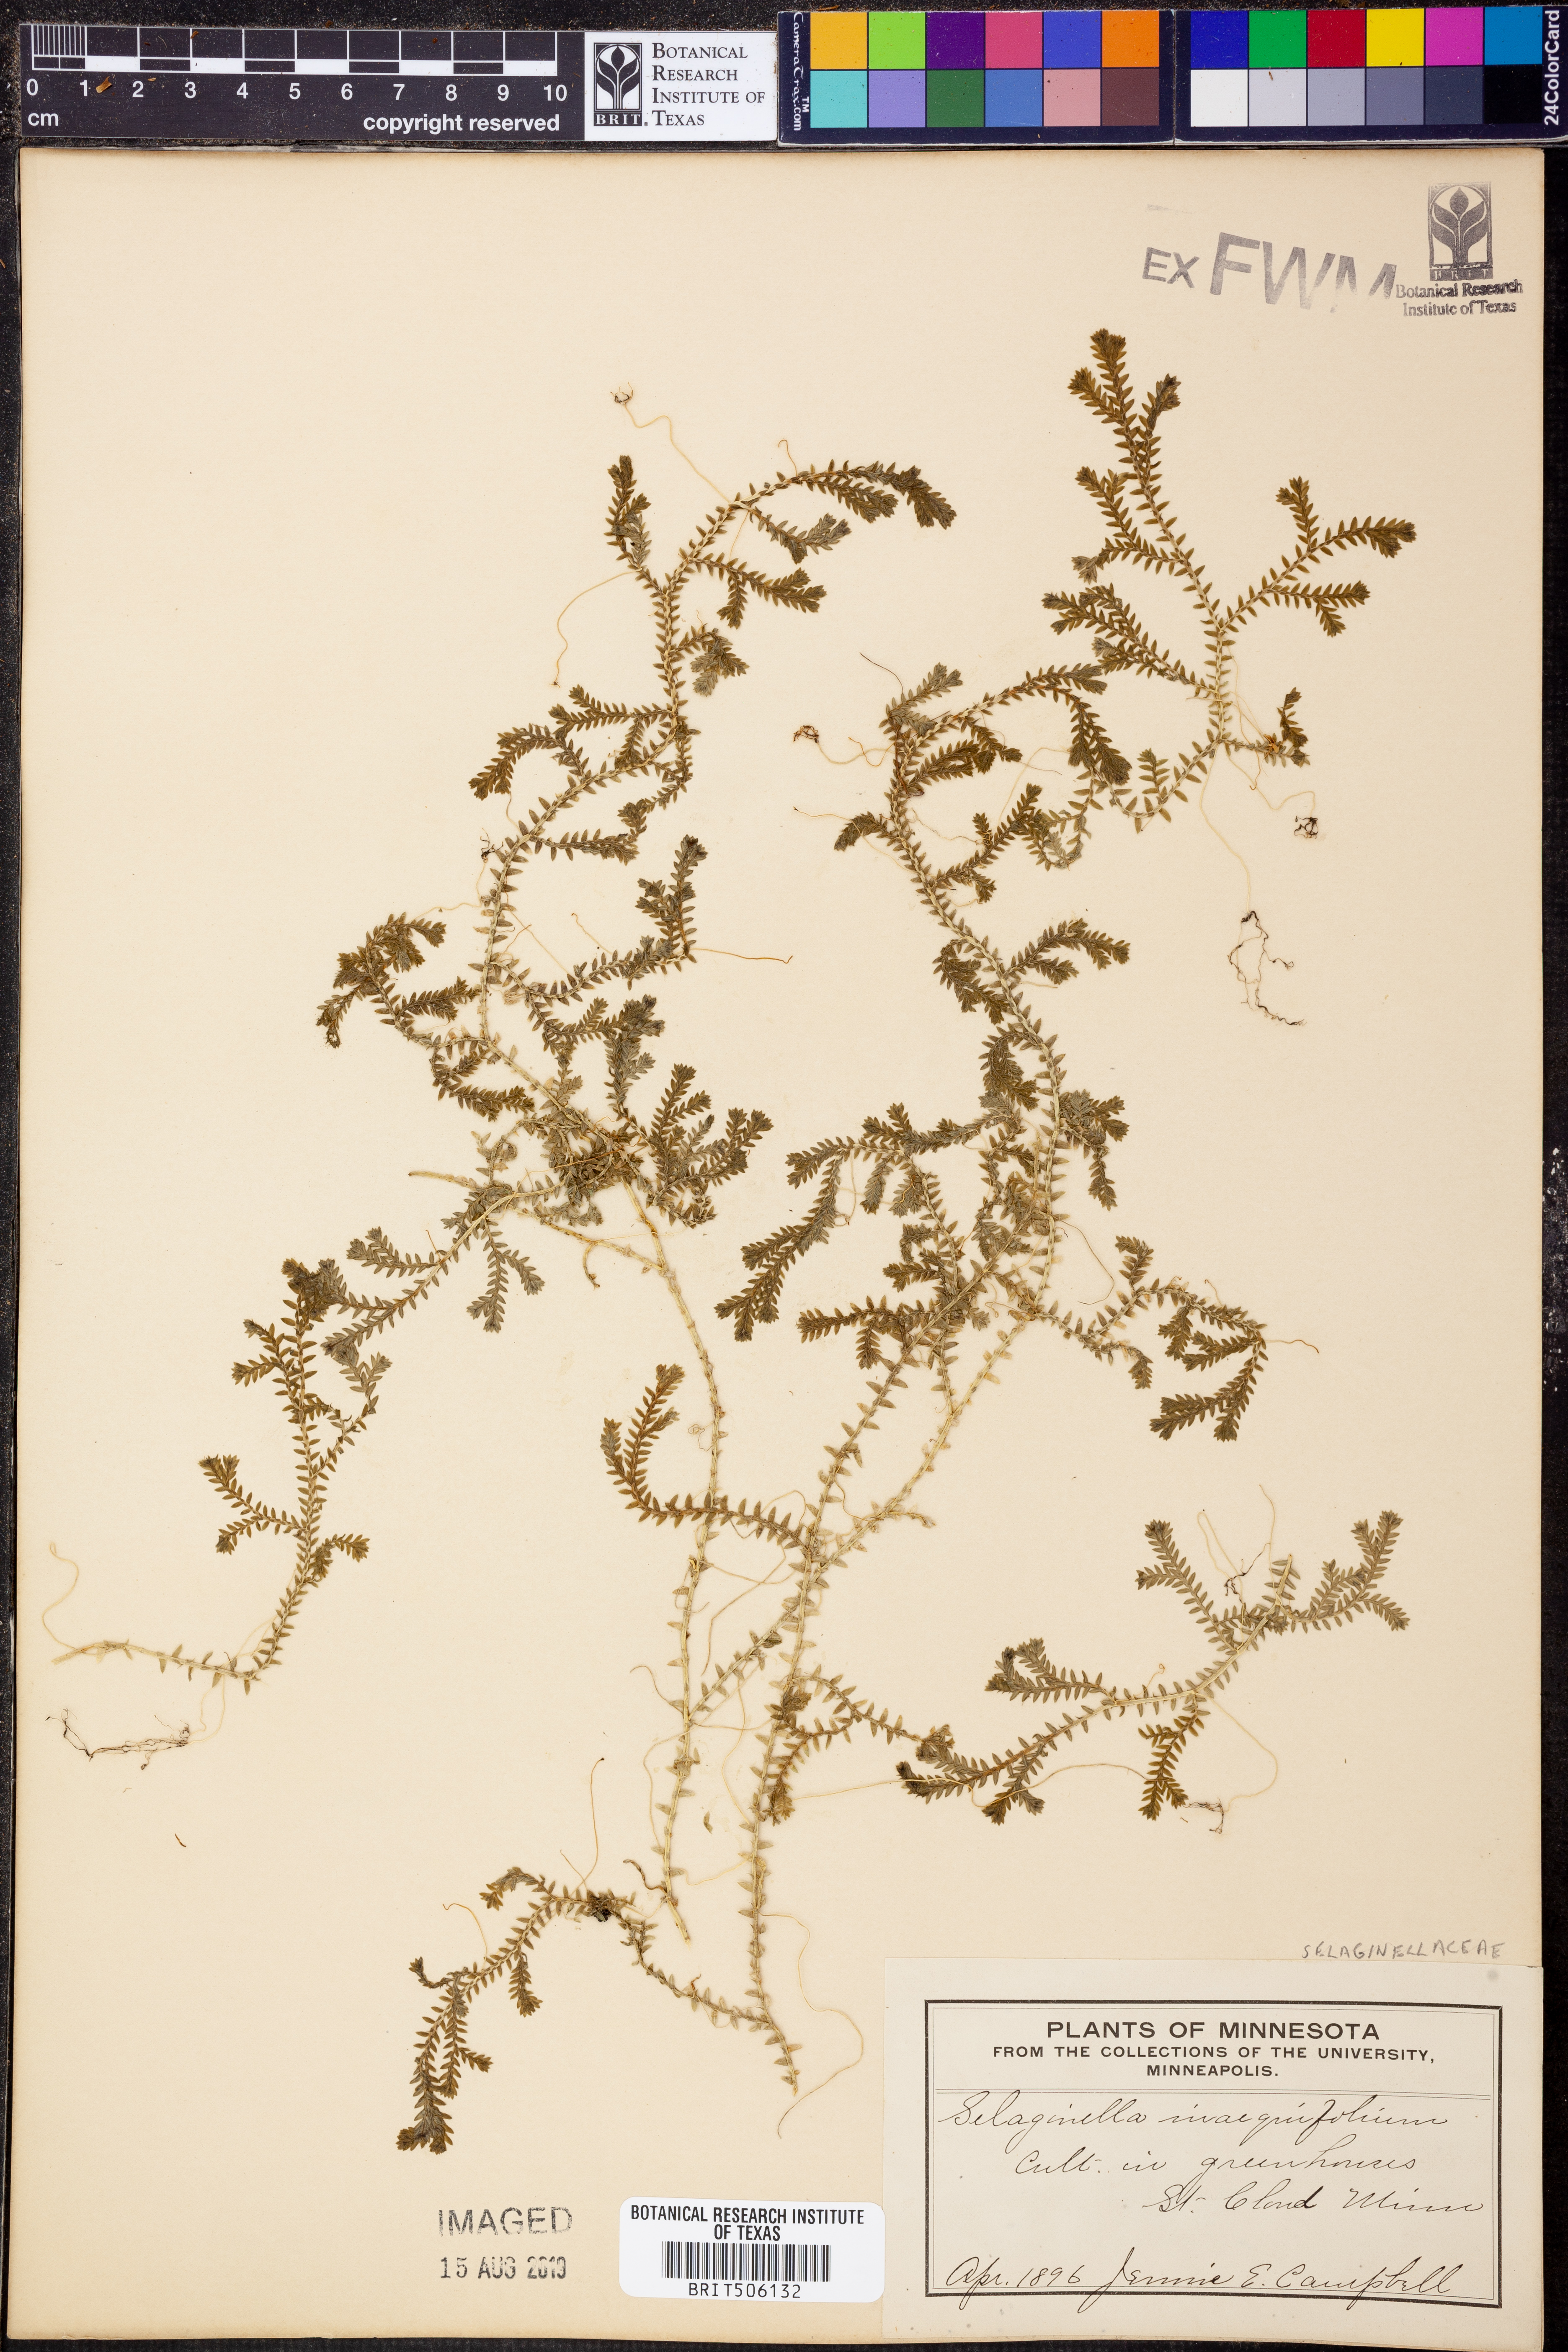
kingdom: Plantae
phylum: Tracheophyta
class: Lycopodiopsida
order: Selaginellales
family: Selaginellaceae
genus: Selaginella
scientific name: Selaginella inaequalifolia
